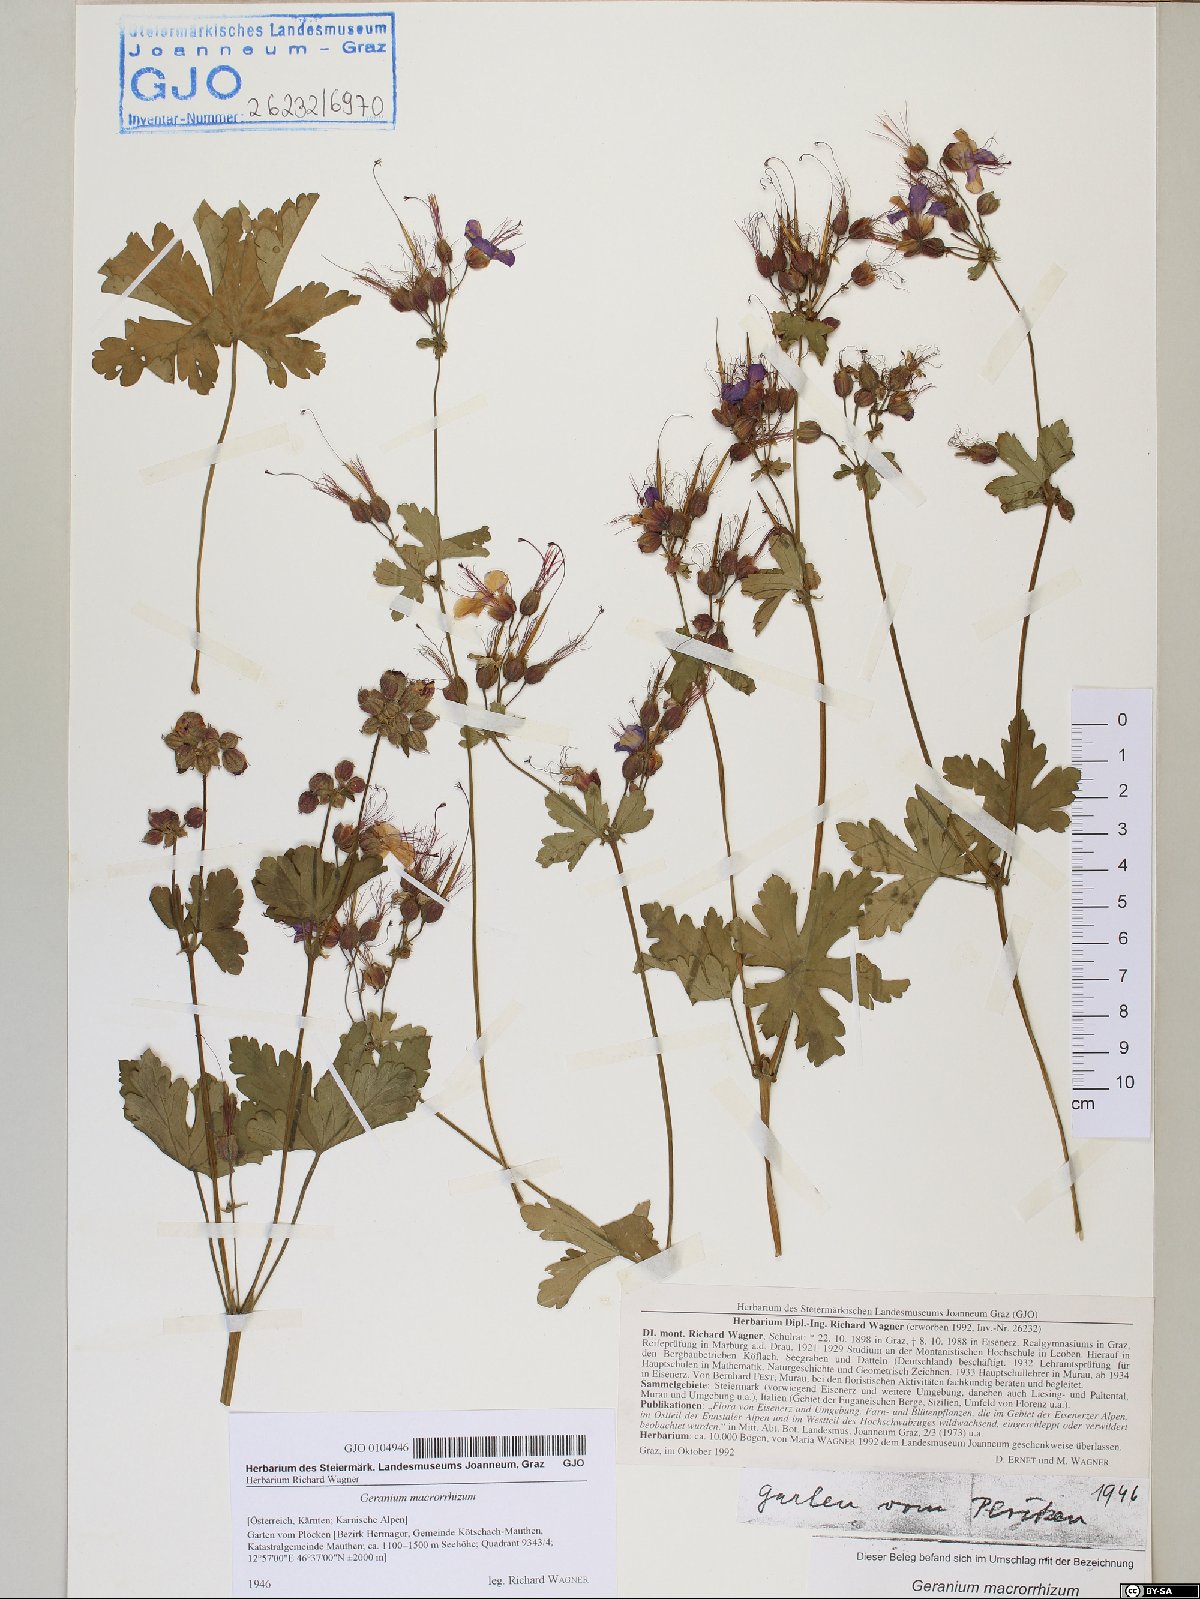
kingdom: Plantae
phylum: Tracheophyta
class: Magnoliopsida
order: Geraniales
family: Geraniaceae
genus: Geranium
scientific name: Geranium macrorrhizum
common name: Rock crane's-bill
